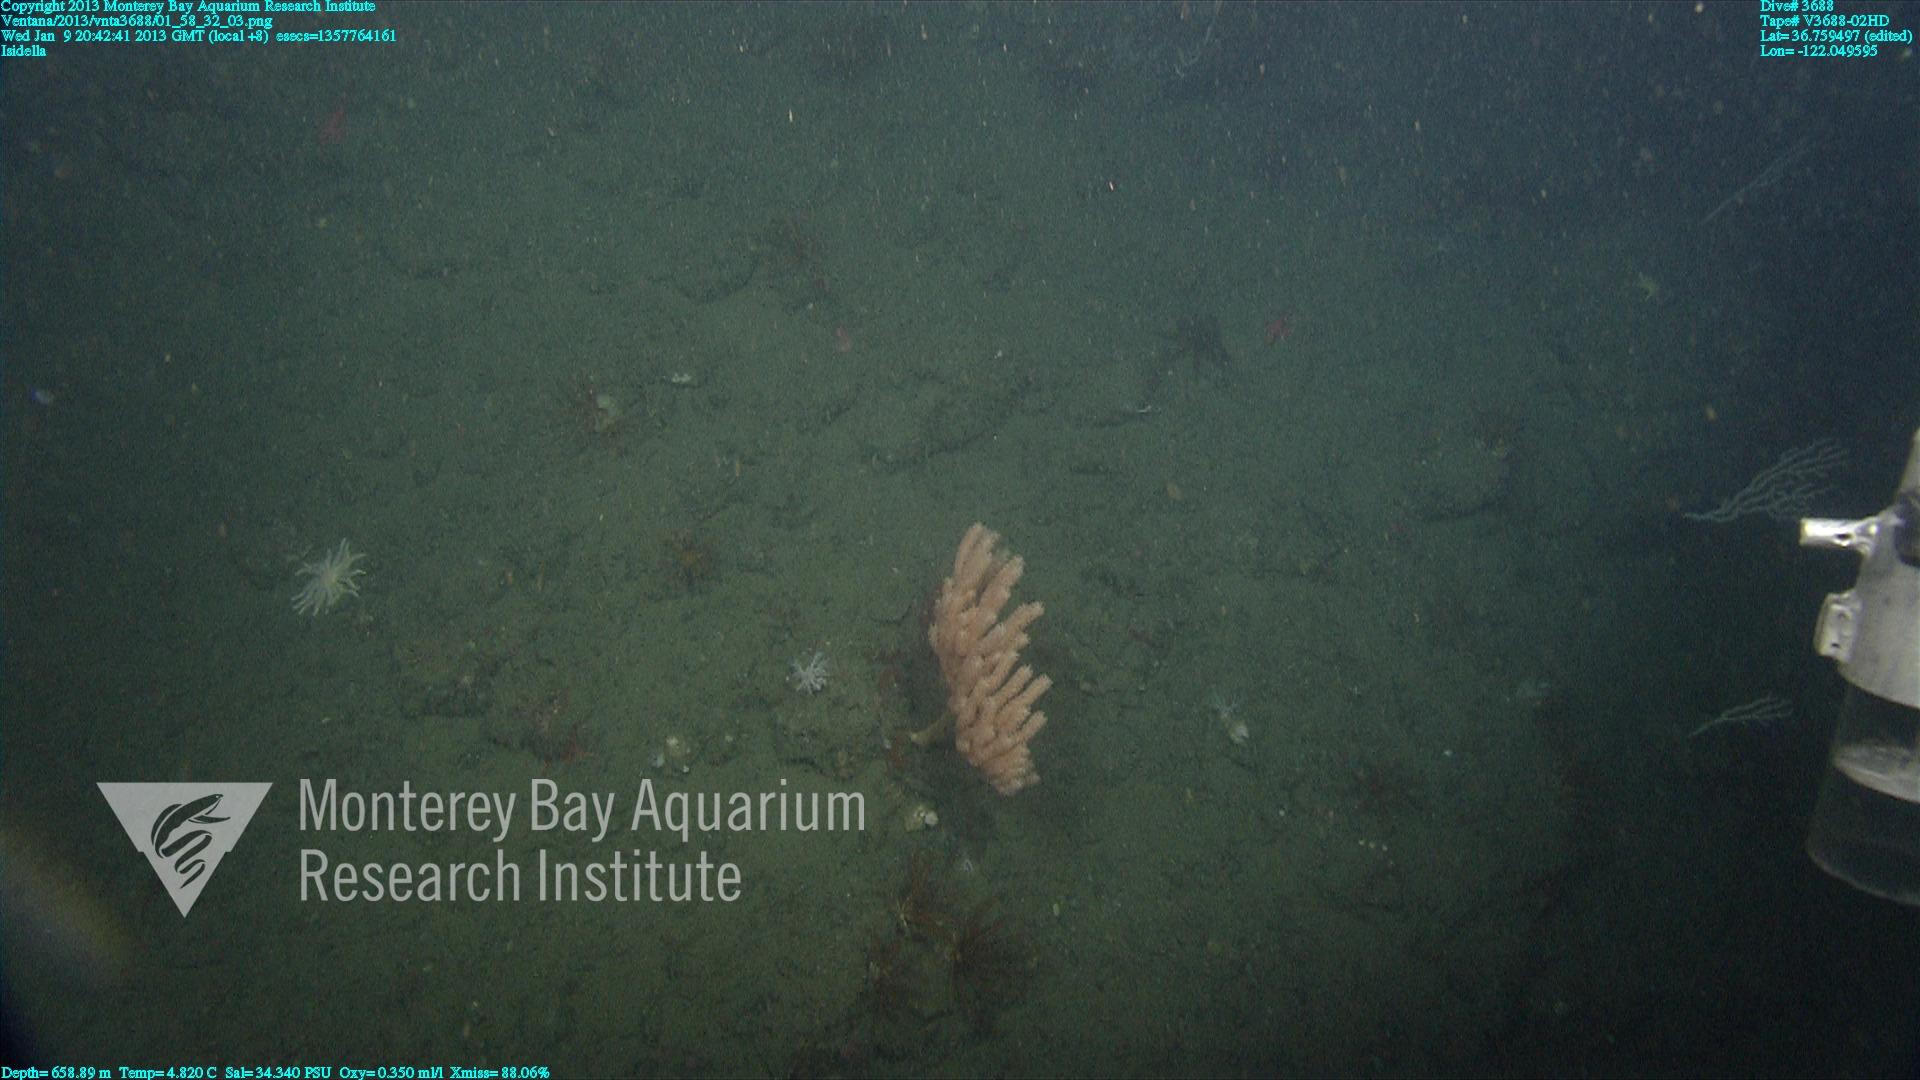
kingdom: Animalia
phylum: Cnidaria
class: Anthozoa
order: Scleralcyonacea
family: Keratoisididae
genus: Isidella
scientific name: Isidella
